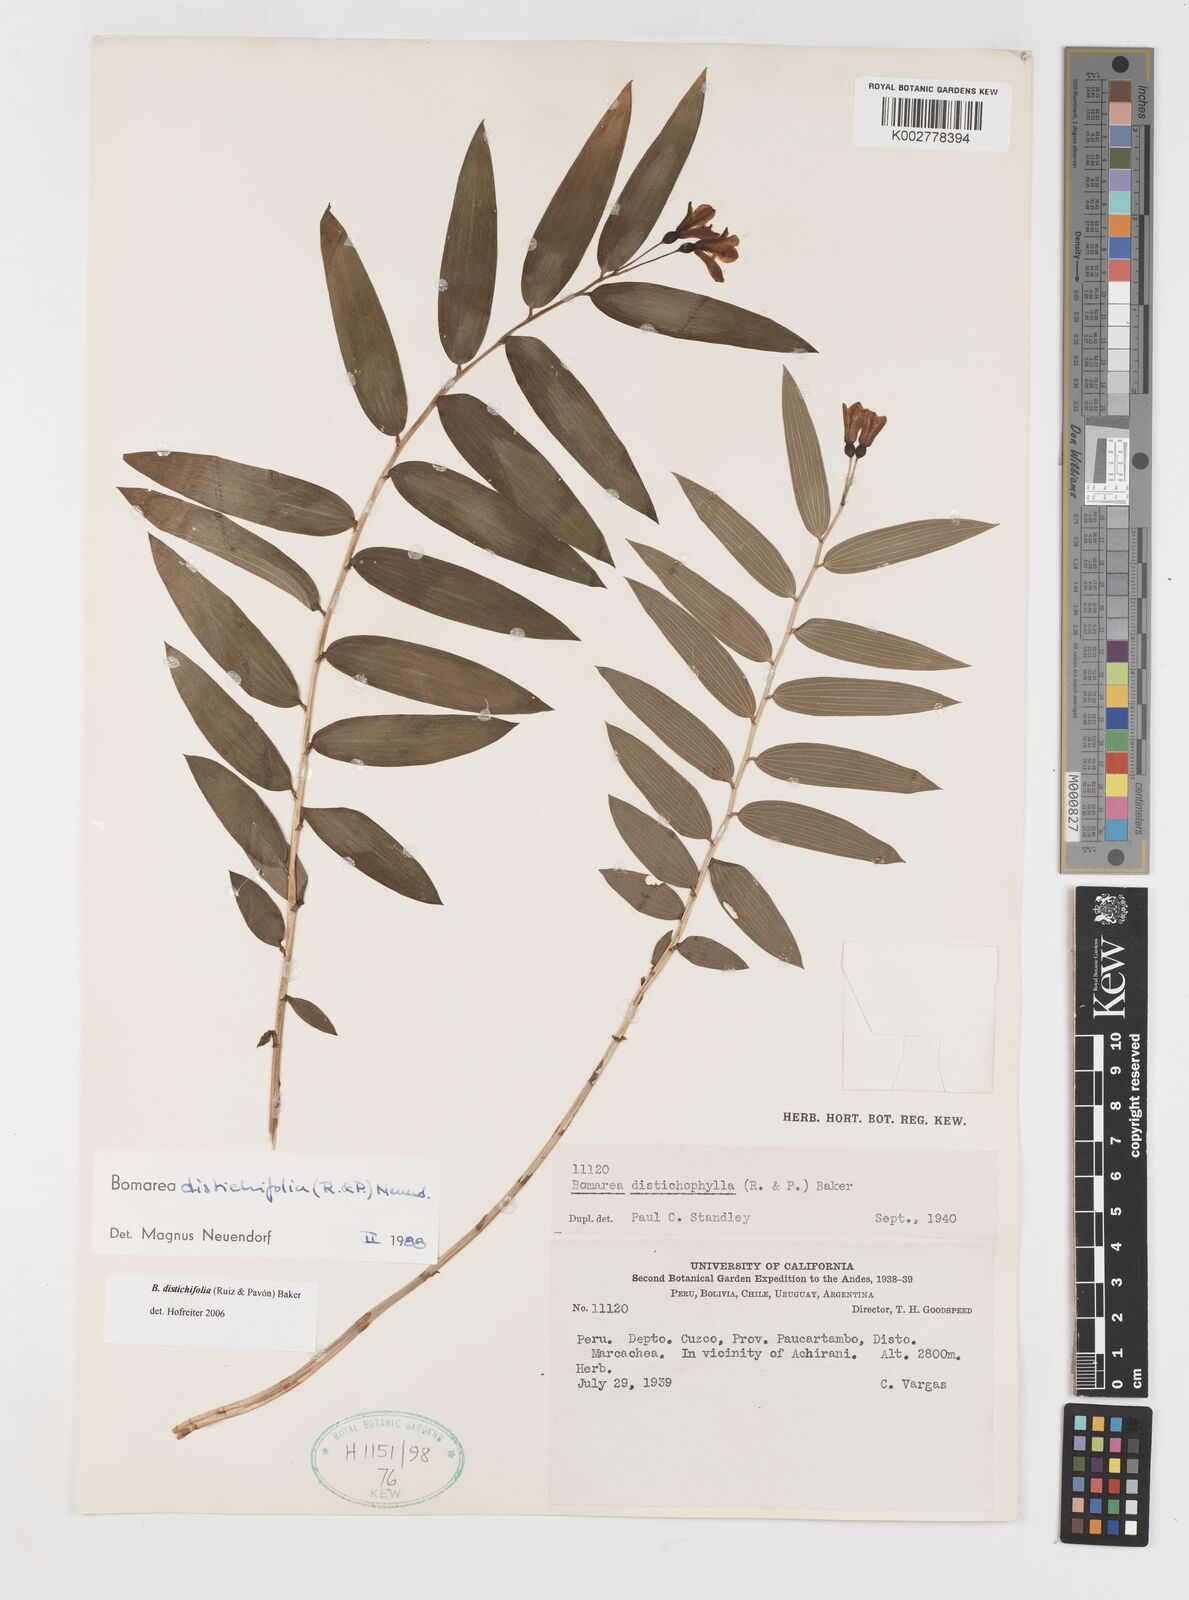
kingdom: Plantae
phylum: Tracheophyta
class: Liliopsida
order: Liliales
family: Alstroemeriaceae
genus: Bomarea
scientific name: Bomarea distichifolia
